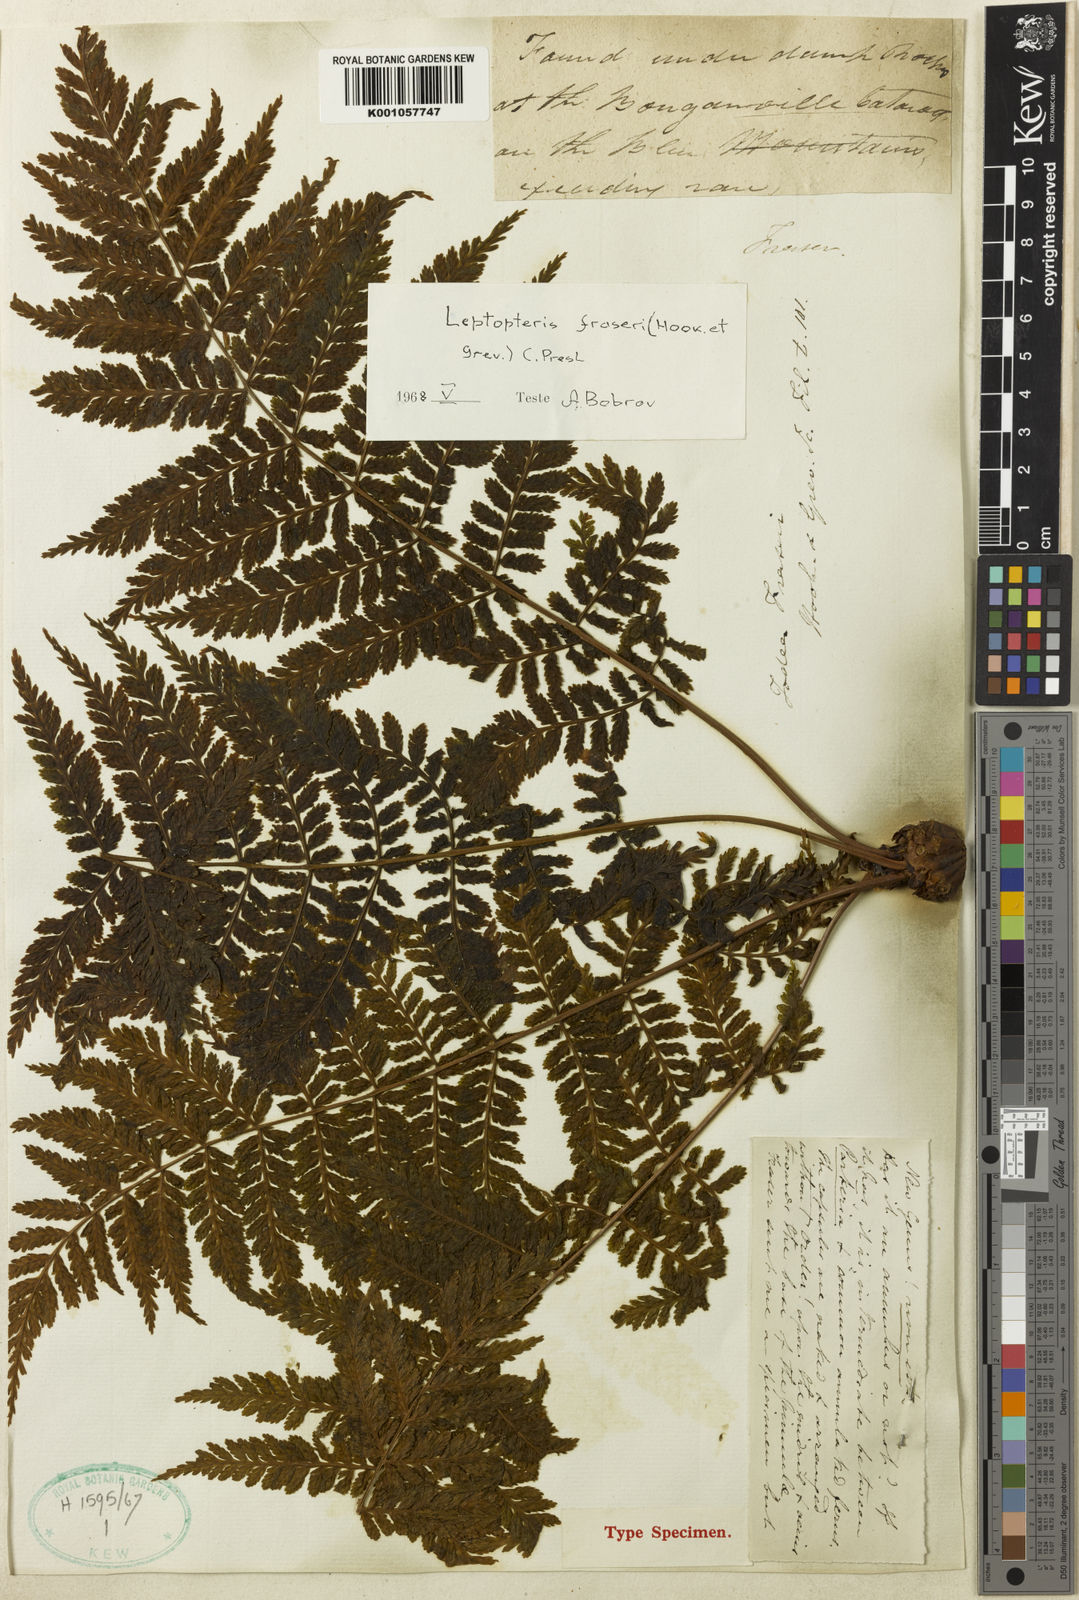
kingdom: Plantae
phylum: Tracheophyta
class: Polypodiopsida
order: Osmundales
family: Osmundaceae
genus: Leptopteris
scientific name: Leptopteris fraseri
